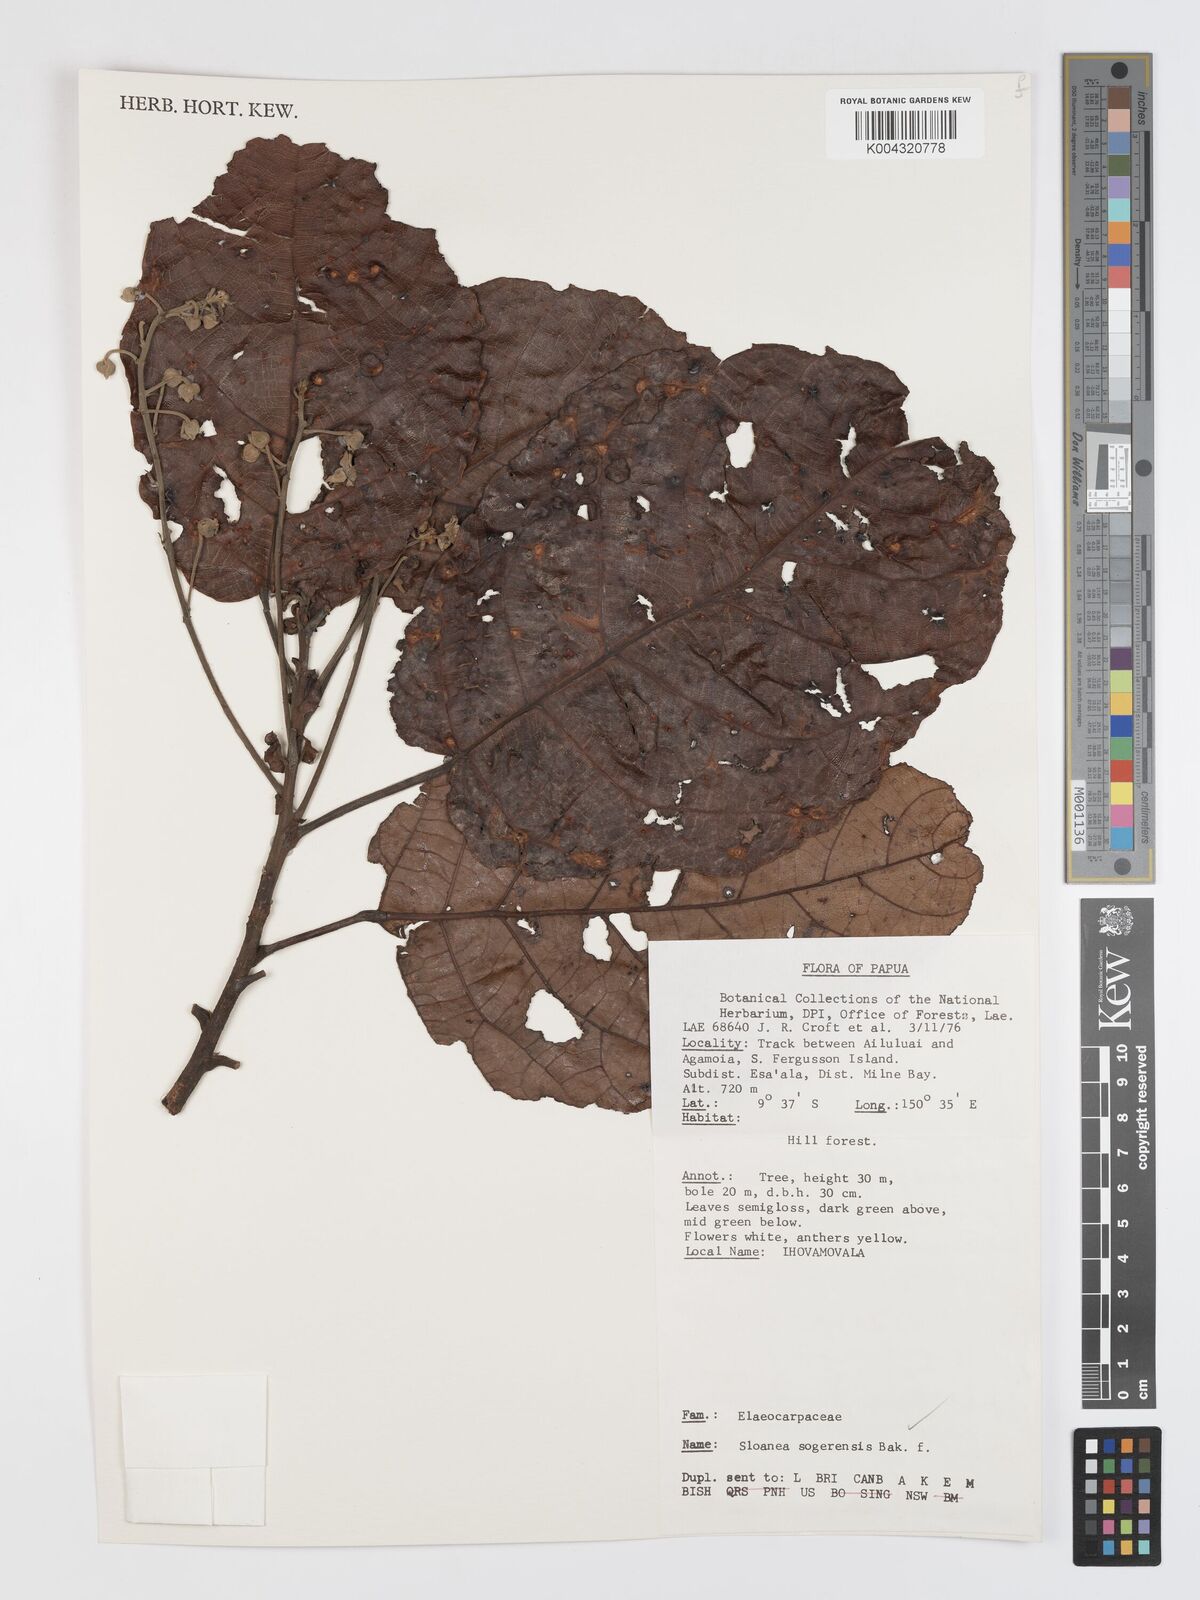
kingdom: Plantae
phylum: Tracheophyta
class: Magnoliopsida
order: Oxalidales
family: Elaeocarpaceae
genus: Sloanea
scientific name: Sloanea sogerensis
